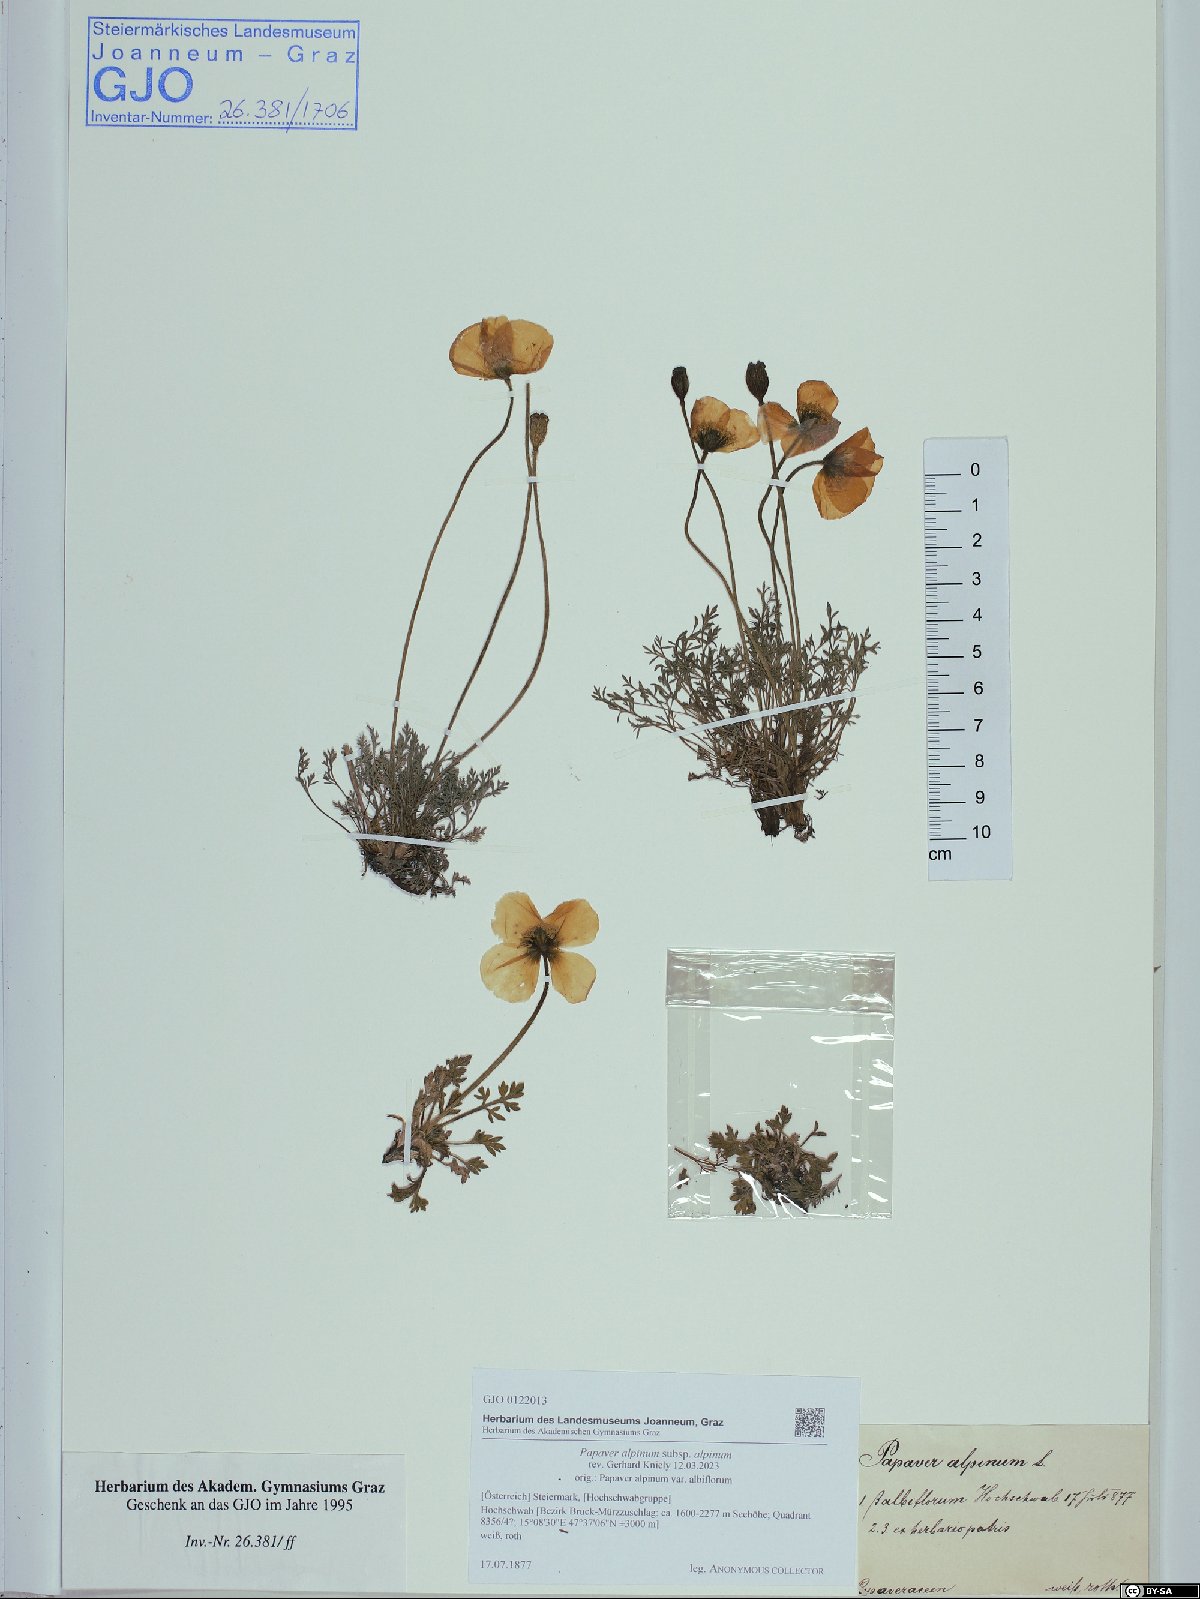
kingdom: Plantae
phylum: Tracheophyta
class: Magnoliopsida
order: Ranunculales
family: Papaveraceae
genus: Papaver
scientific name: Papaver alpinum
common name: Austrian poppy
